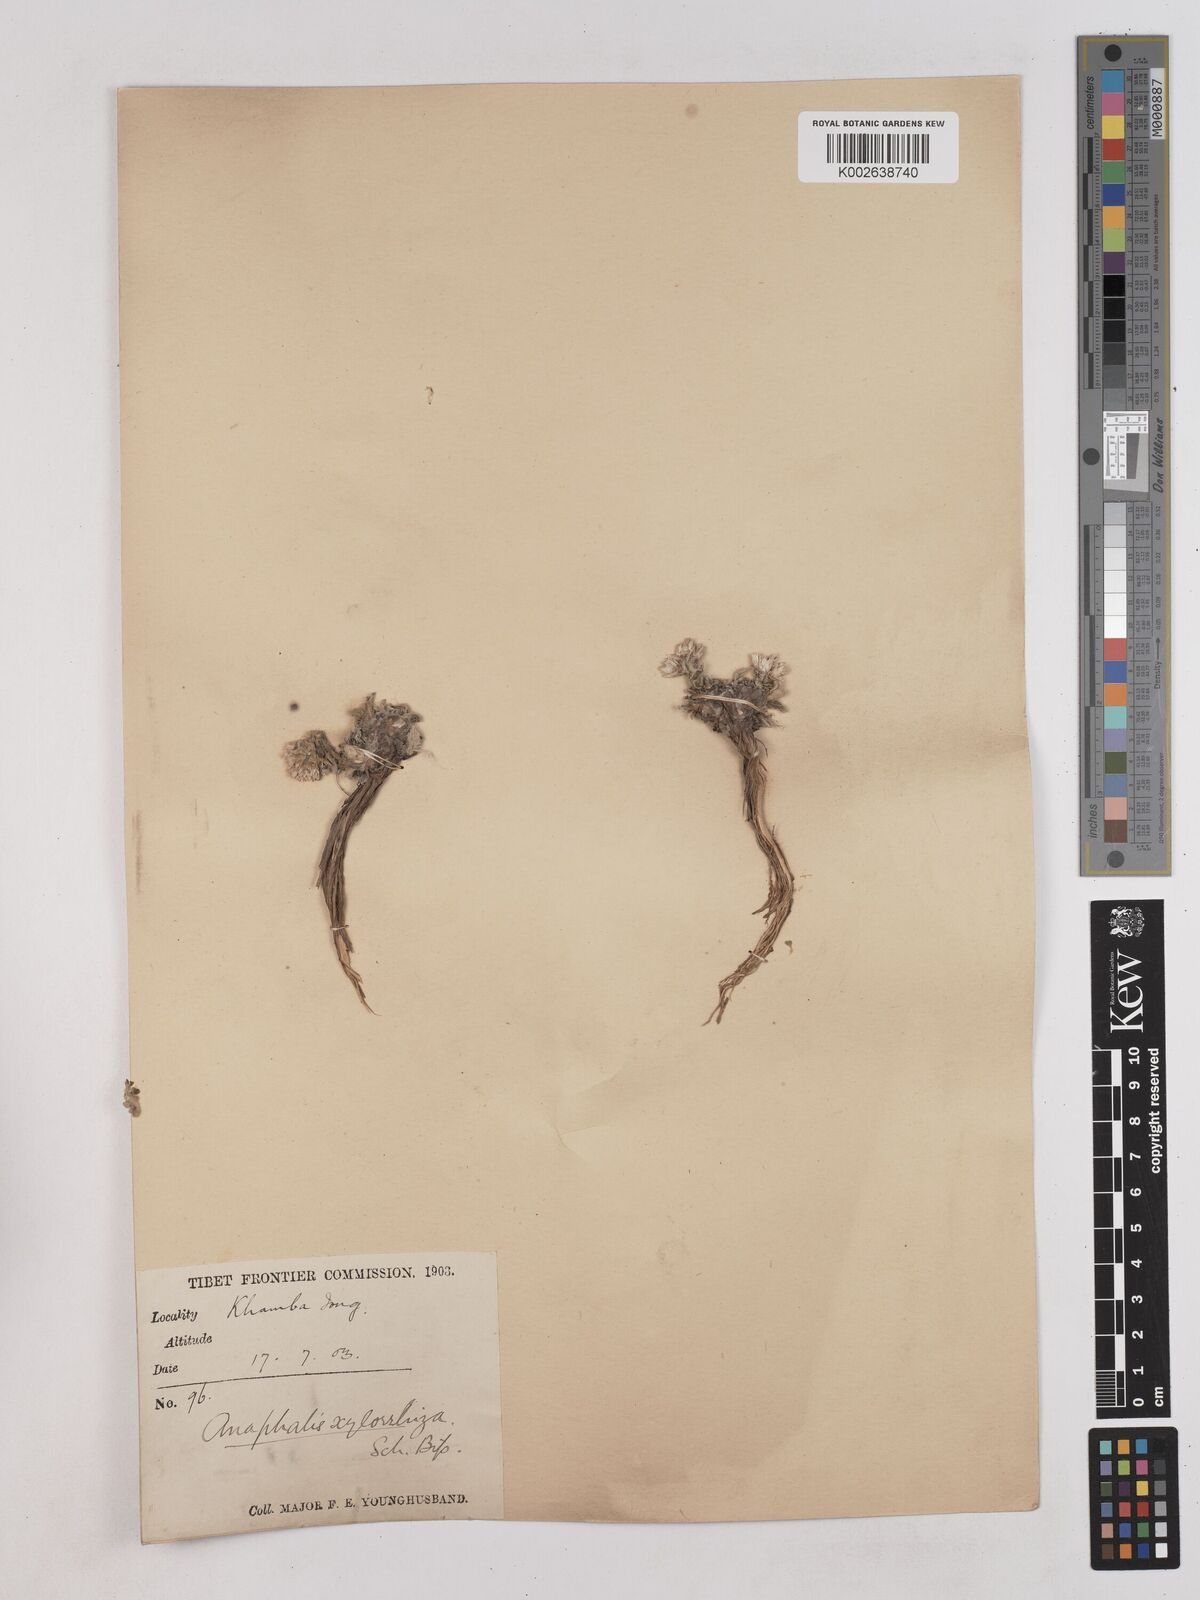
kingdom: Plantae
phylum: Tracheophyta
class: Magnoliopsida
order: Asterales
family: Asteraceae
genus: Anaphalis
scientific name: Anaphalis xylorhiza
